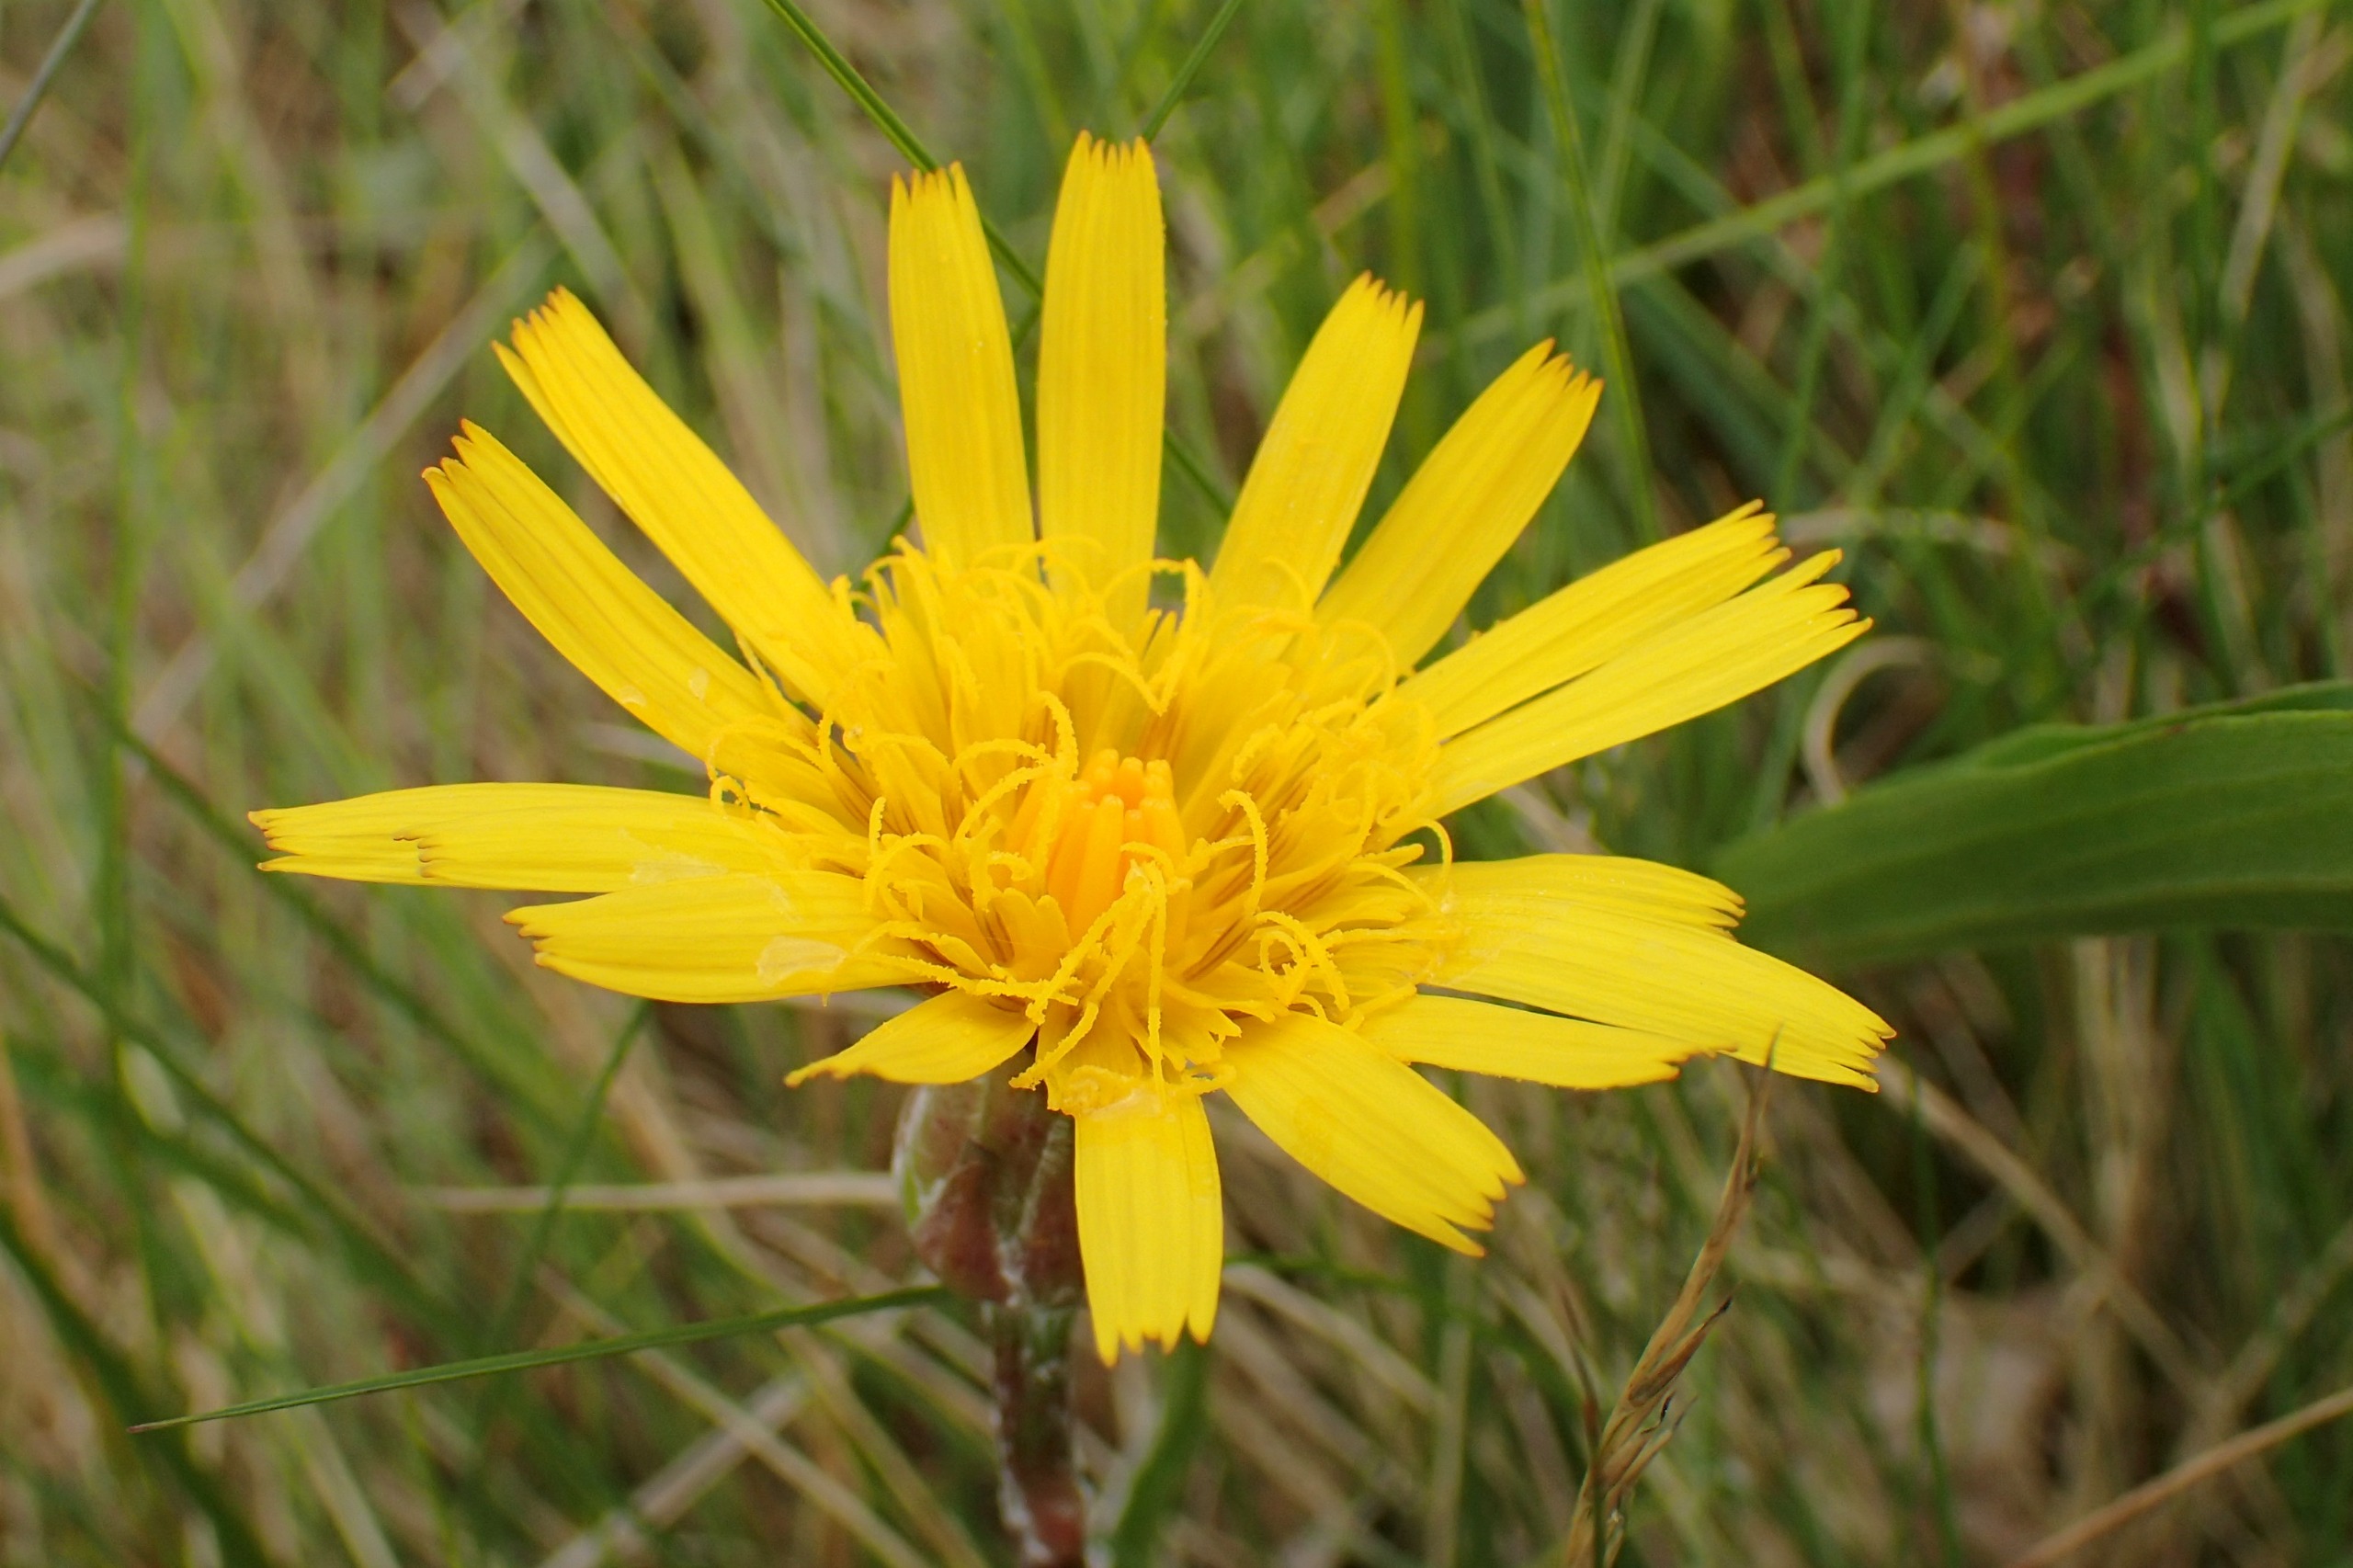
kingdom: Plantae
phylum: Tracheophyta
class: Magnoliopsida
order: Asterales
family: Asteraceae
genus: Scorzonera
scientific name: Scorzonera humilis
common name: Lav skorsoner
